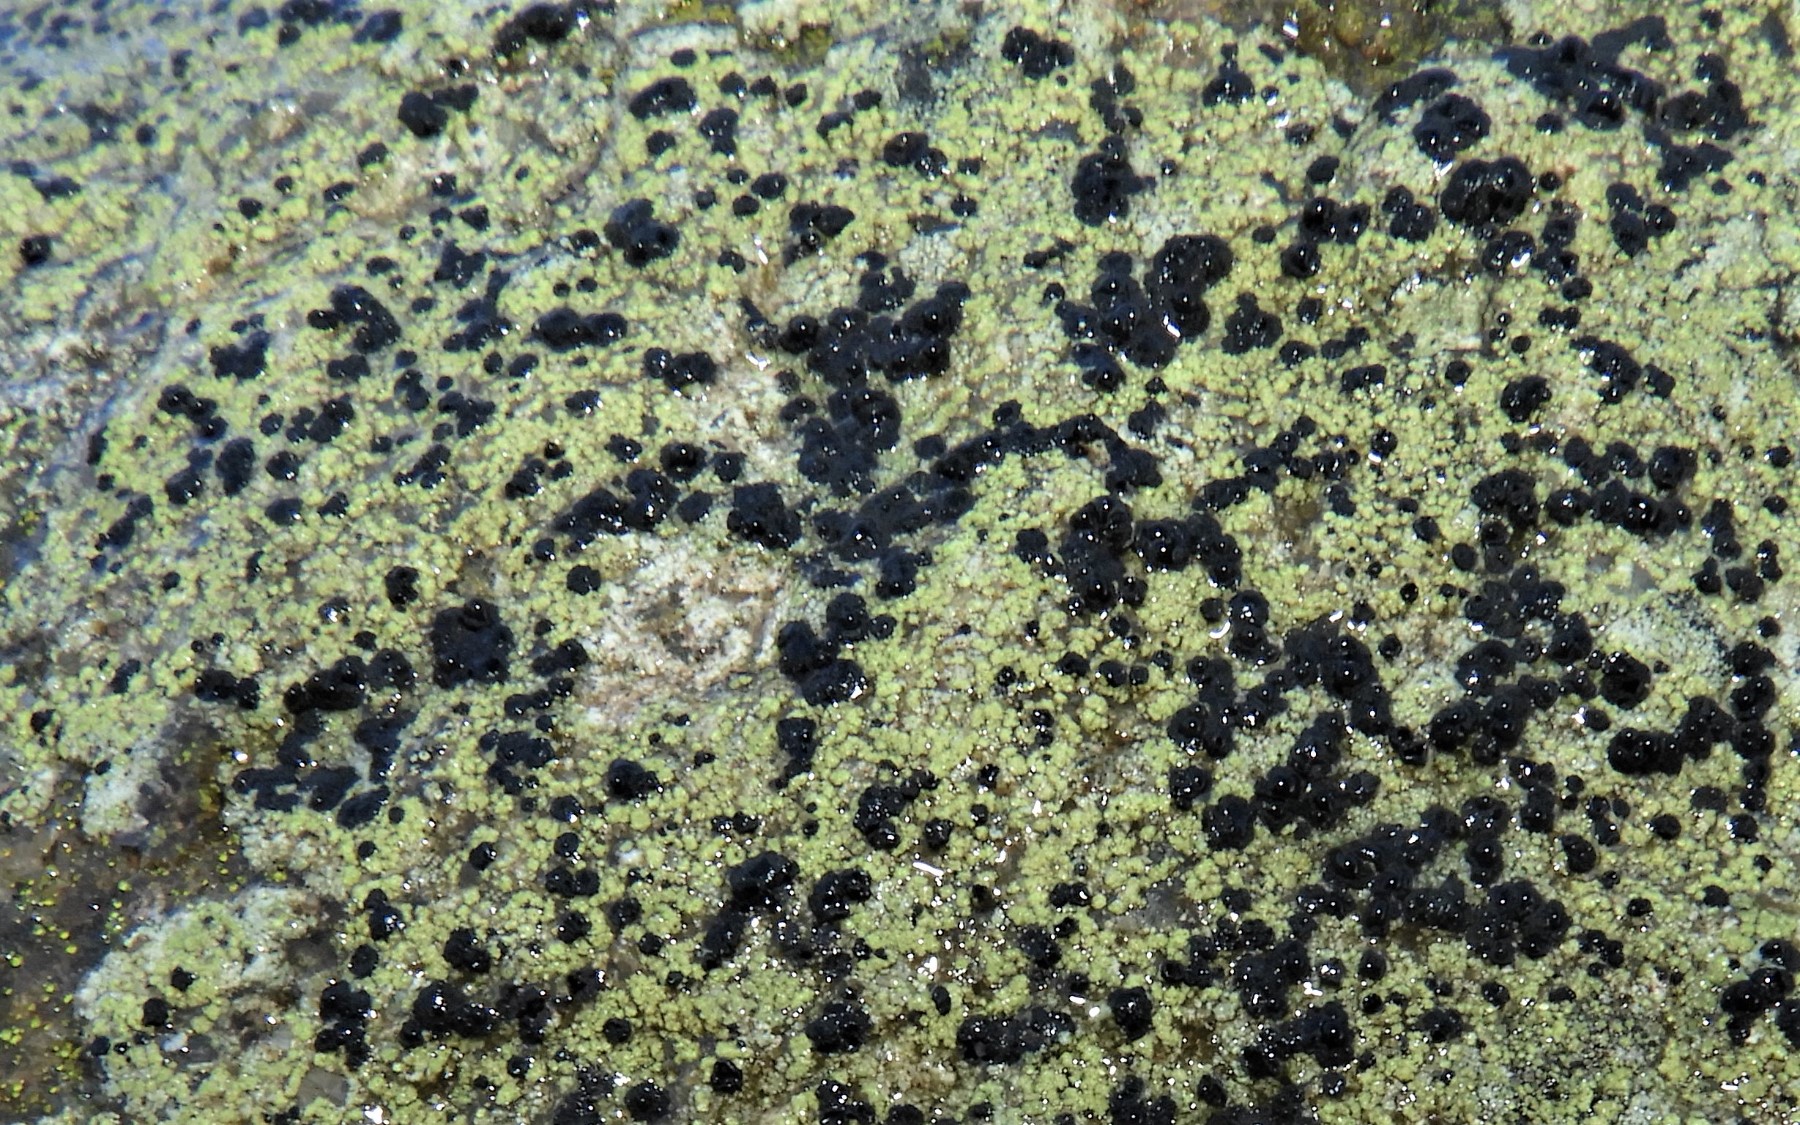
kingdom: Fungi
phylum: Ascomycota
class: Lecanoromycetes
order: Lecanorales
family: Lecanoraceae
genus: Lecidella
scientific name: Lecidella scabra
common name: skurvet skivelav
